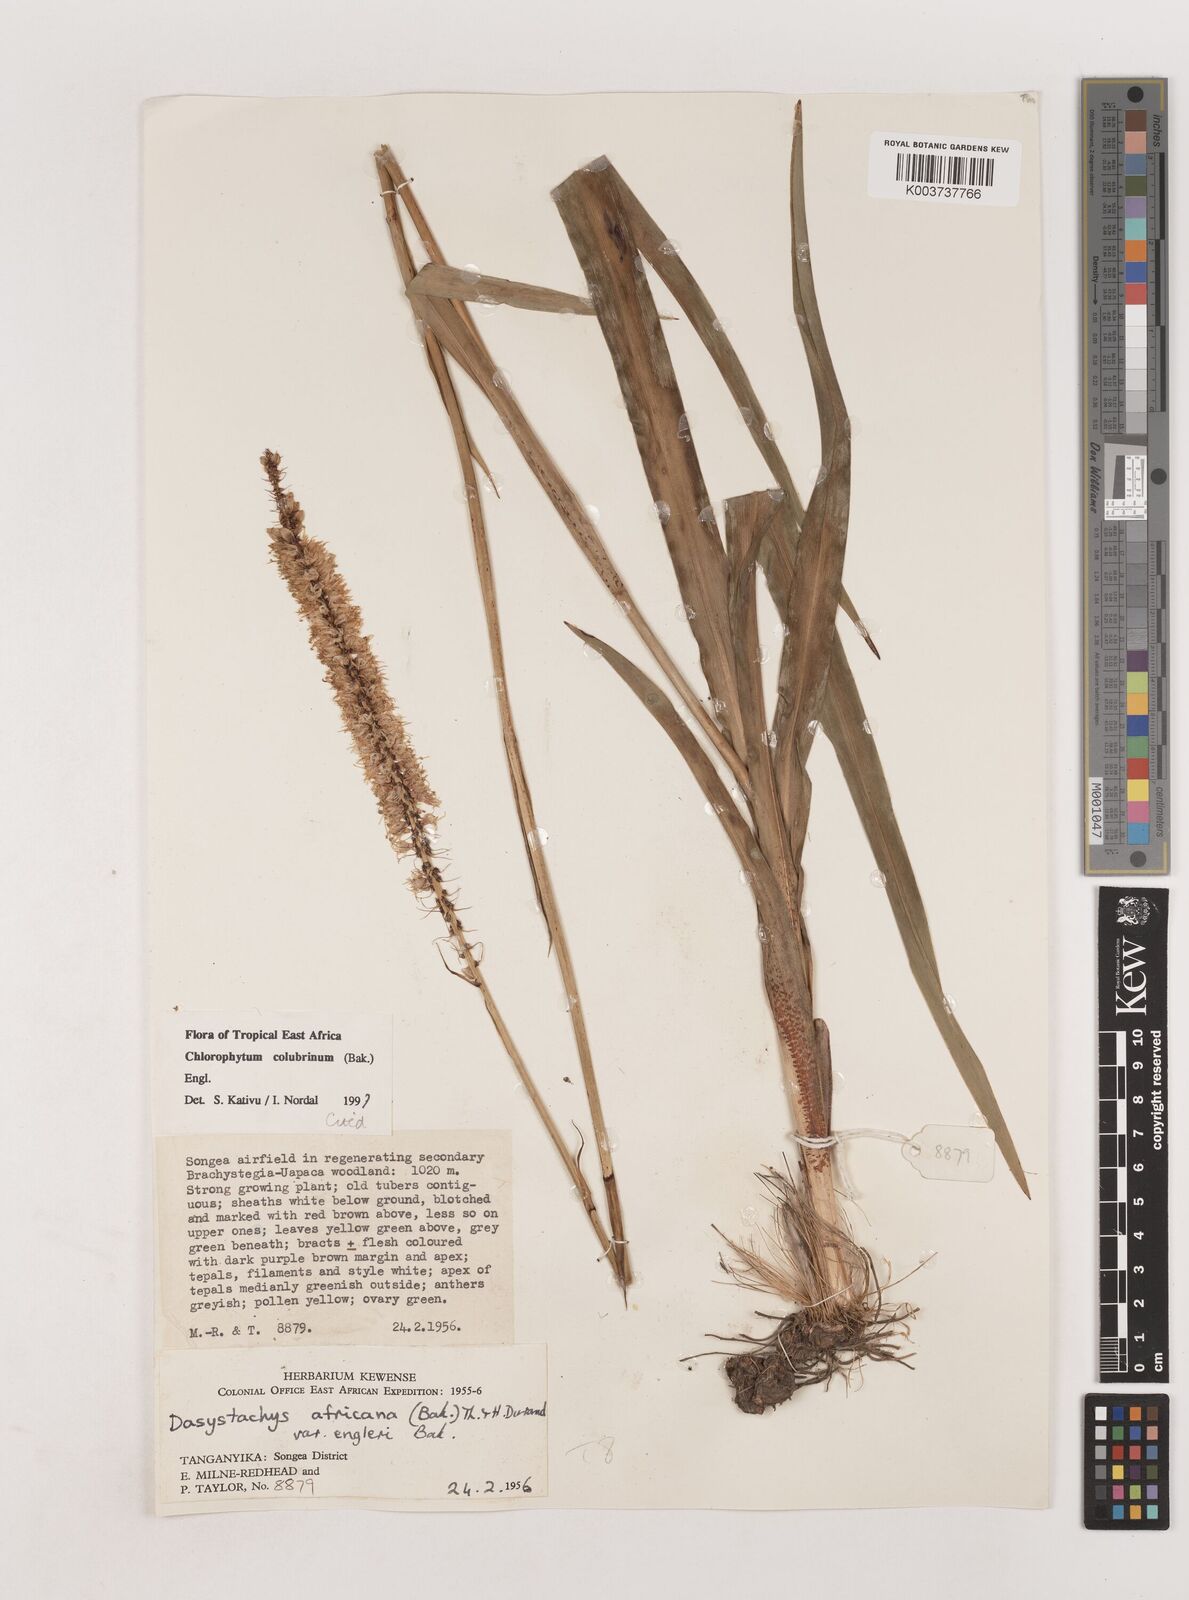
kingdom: Plantae
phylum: Tracheophyta
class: Liliopsida
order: Asparagales
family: Asparagaceae
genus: Chlorophytum
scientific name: Chlorophytum colubrinum
